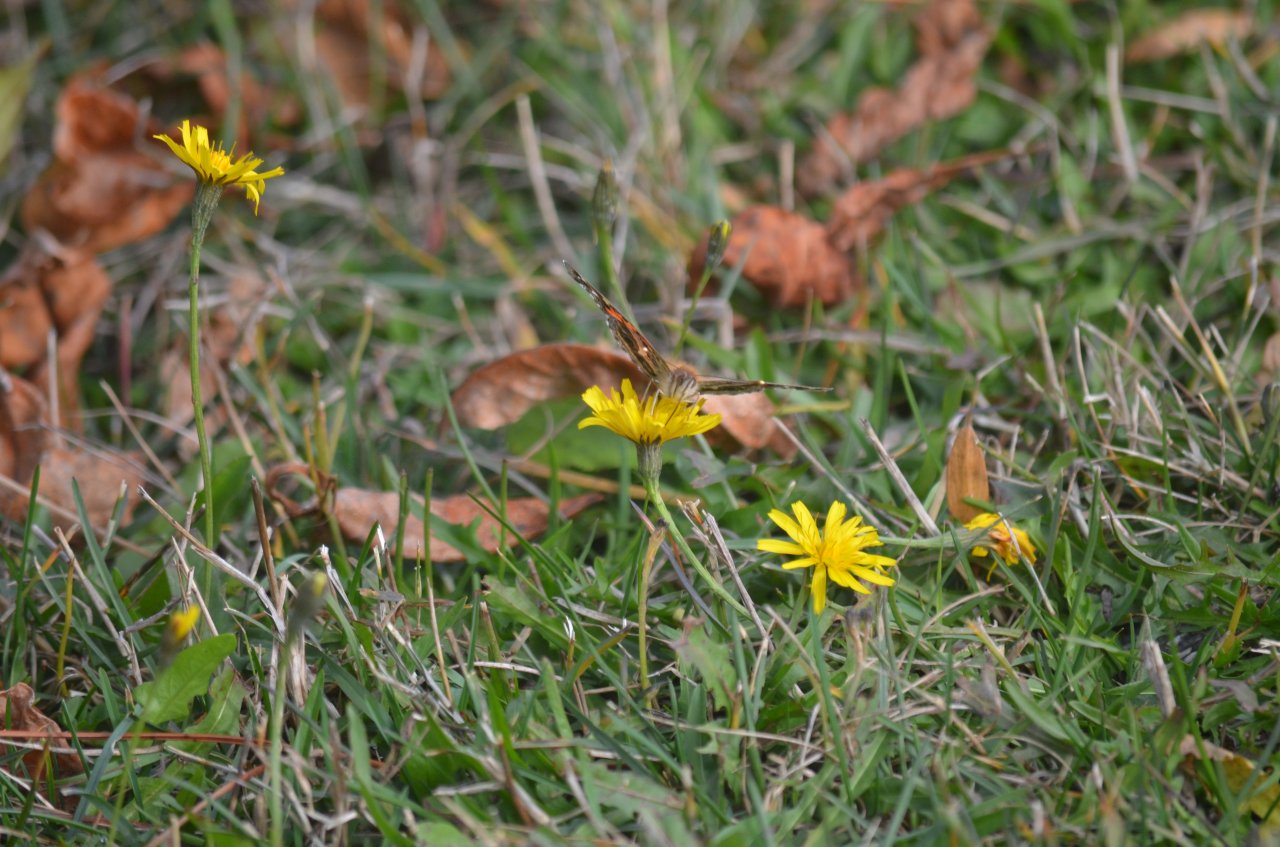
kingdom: Animalia
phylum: Arthropoda
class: Insecta
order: Lepidoptera
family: Nymphalidae
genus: Vanessa
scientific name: Vanessa cardui
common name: Painted Lady
